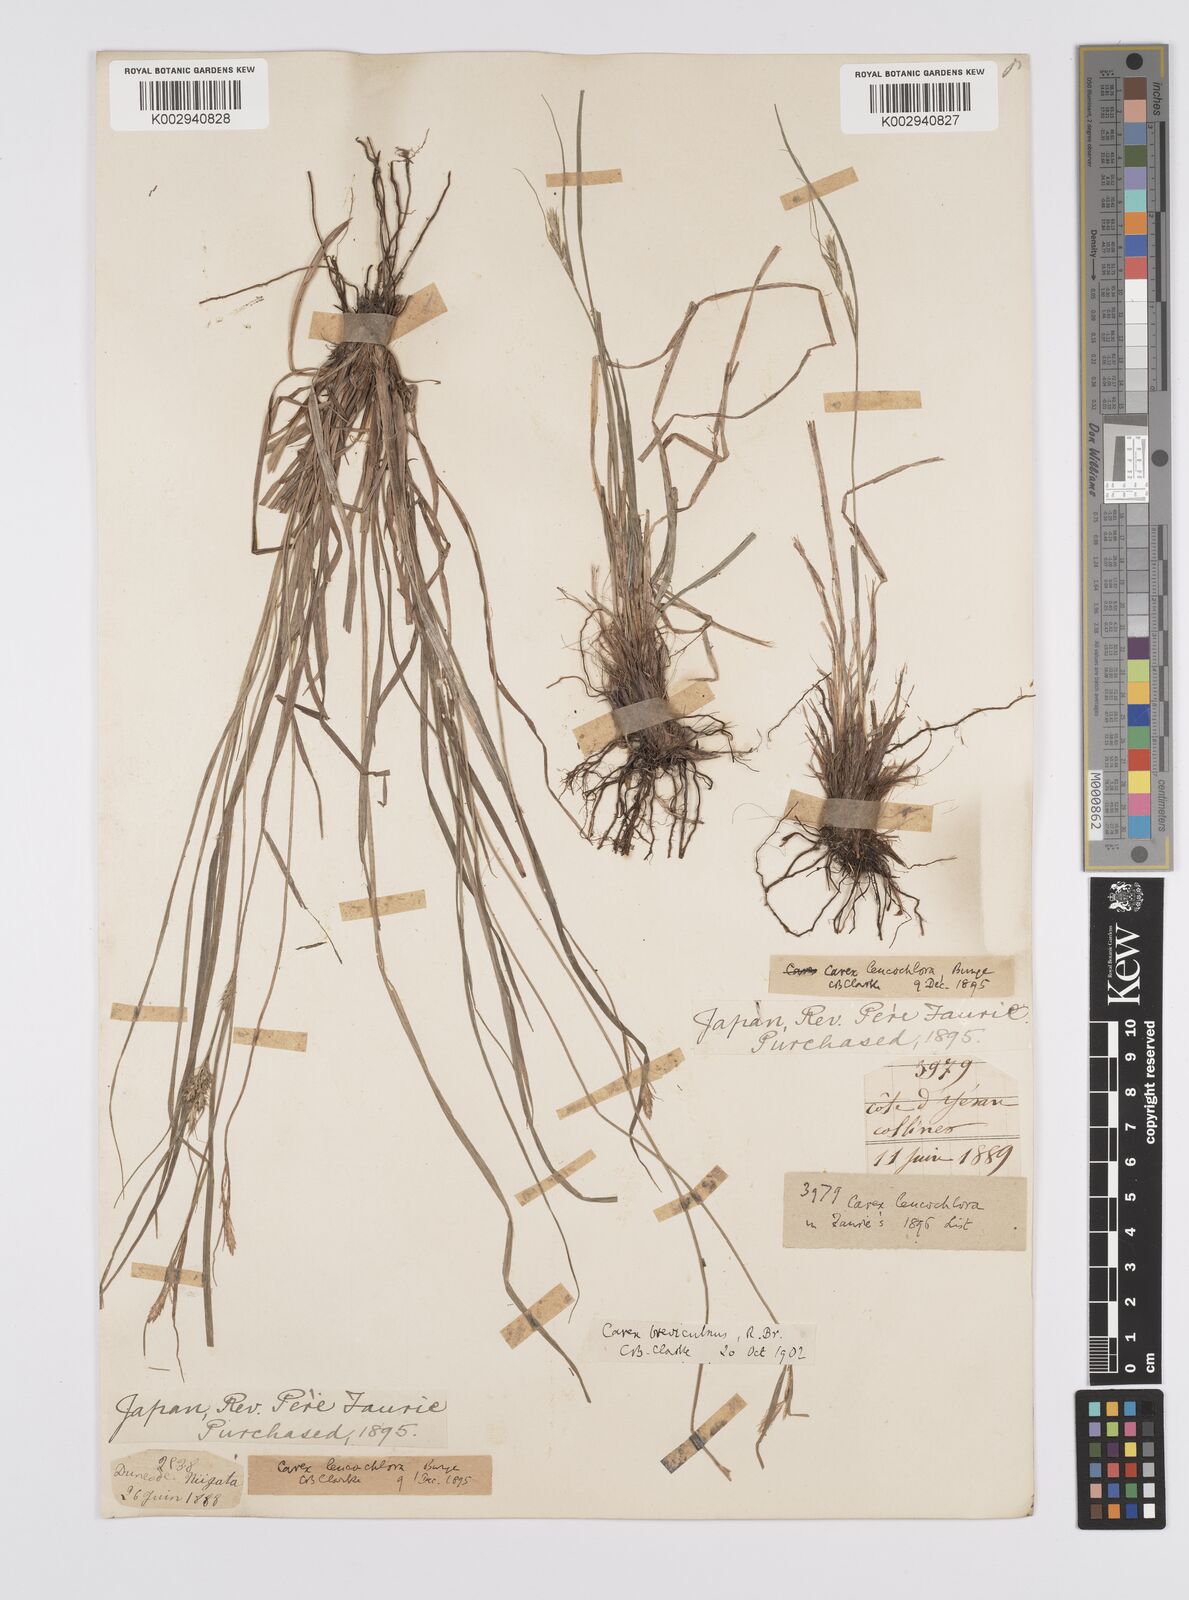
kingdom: Plantae
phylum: Tracheophyta
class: Liliopsida
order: Poales
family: Cyperaceae
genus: Carex
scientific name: Carex breviculmis
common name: Asian shortstem sedge
